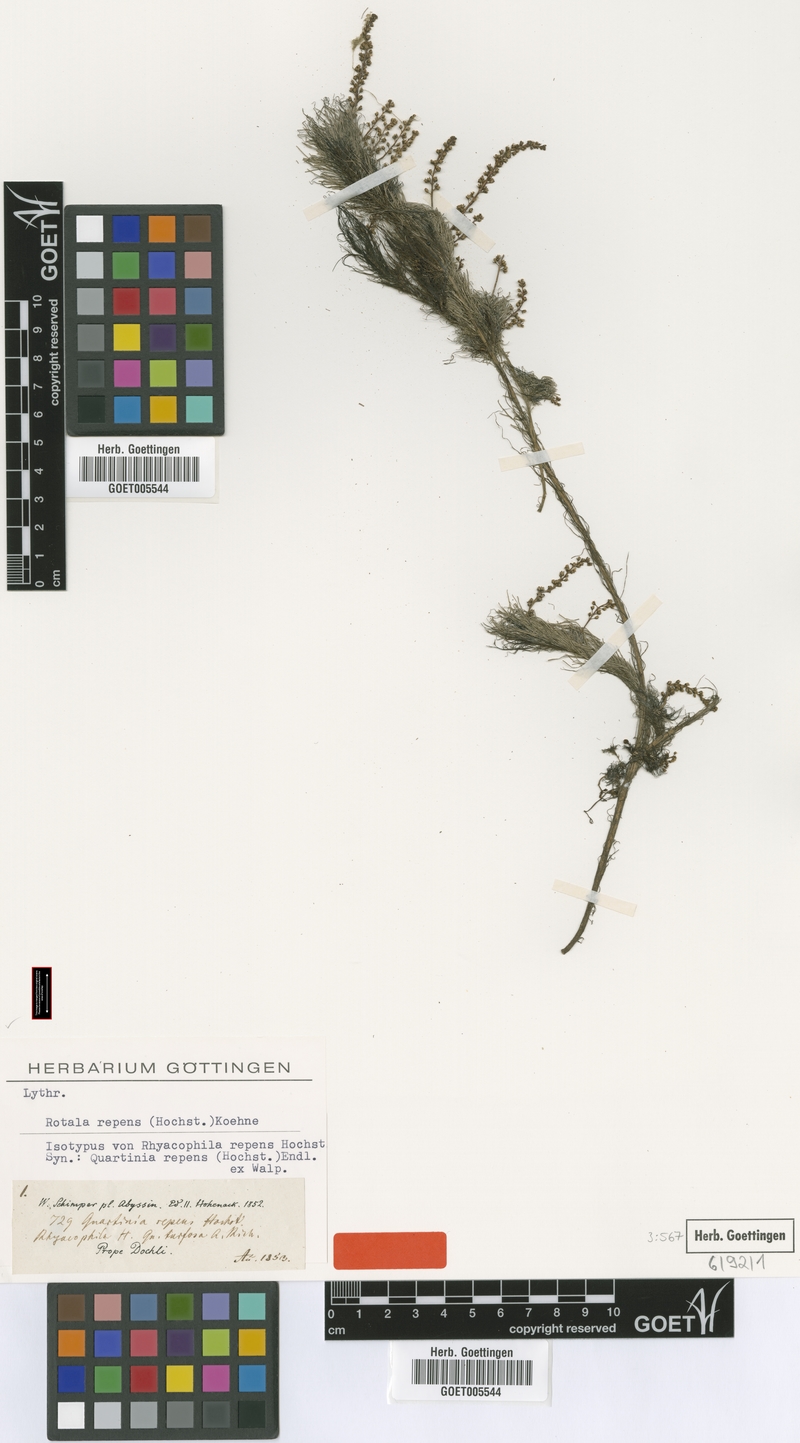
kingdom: Plantae
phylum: Tracheophyta
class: Magnoliopsida
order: Myrtales
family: Lythraceae
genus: Rotala
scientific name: Rotala repens
